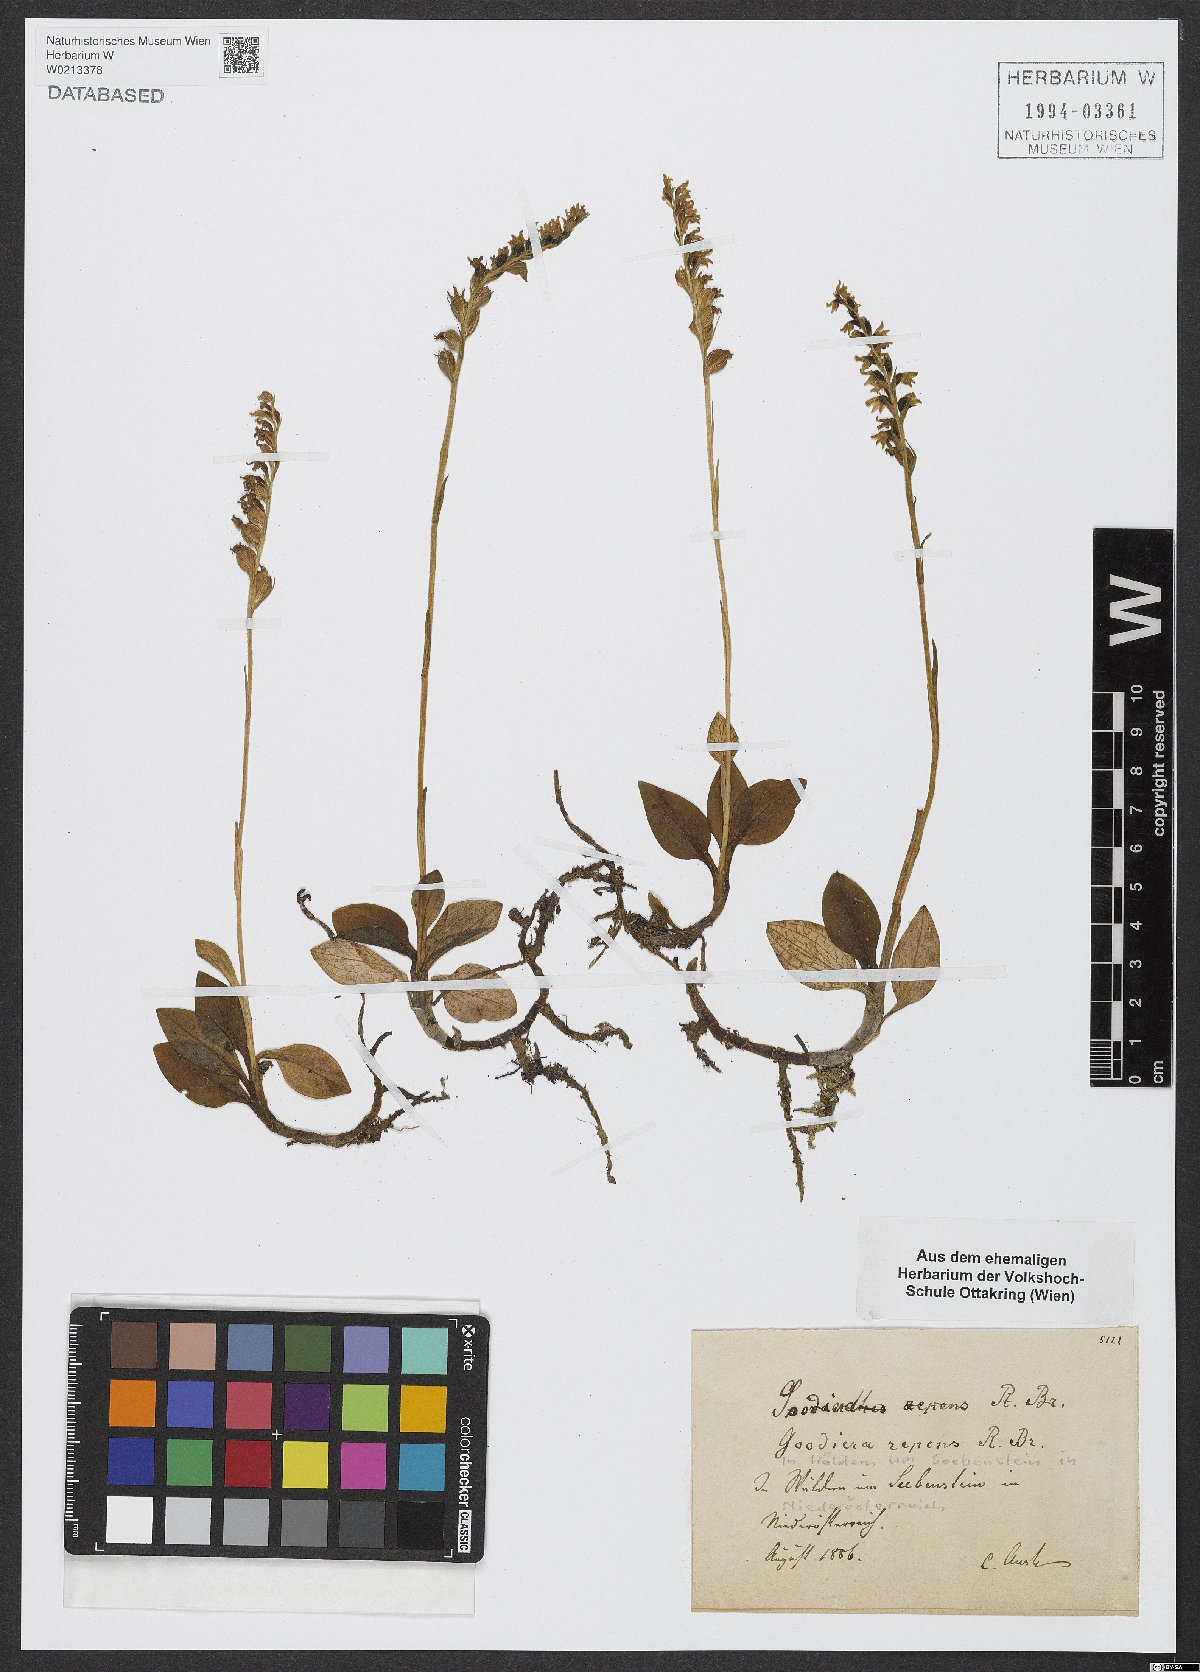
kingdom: Plantae
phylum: Tracheophyta
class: Liliopsida
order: Asparagales
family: Orchidaceae
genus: Goodyera
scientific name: Goodyera repens
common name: Creeping lady's-tresses
